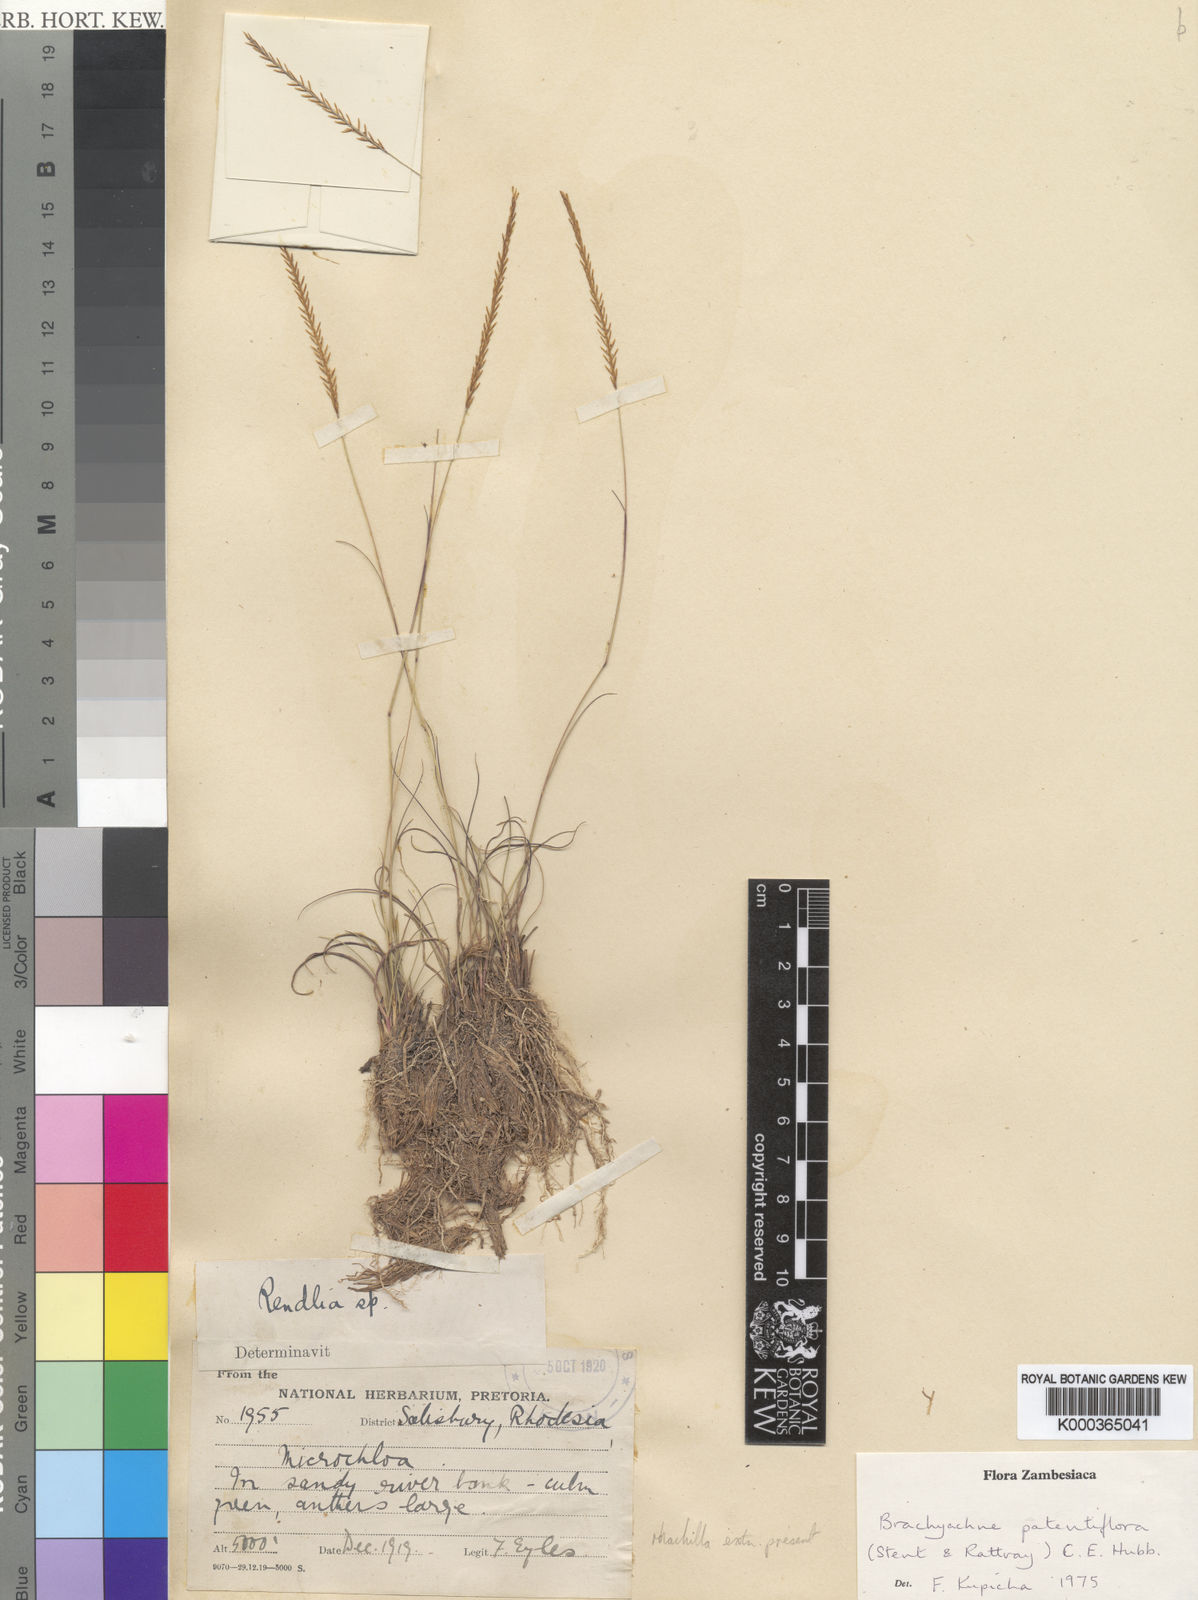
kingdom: Plantae
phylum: Tracheophyta
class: Liliopsida
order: Poales
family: Poaceae
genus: Micrachne
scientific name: Micrachne patentiflora
